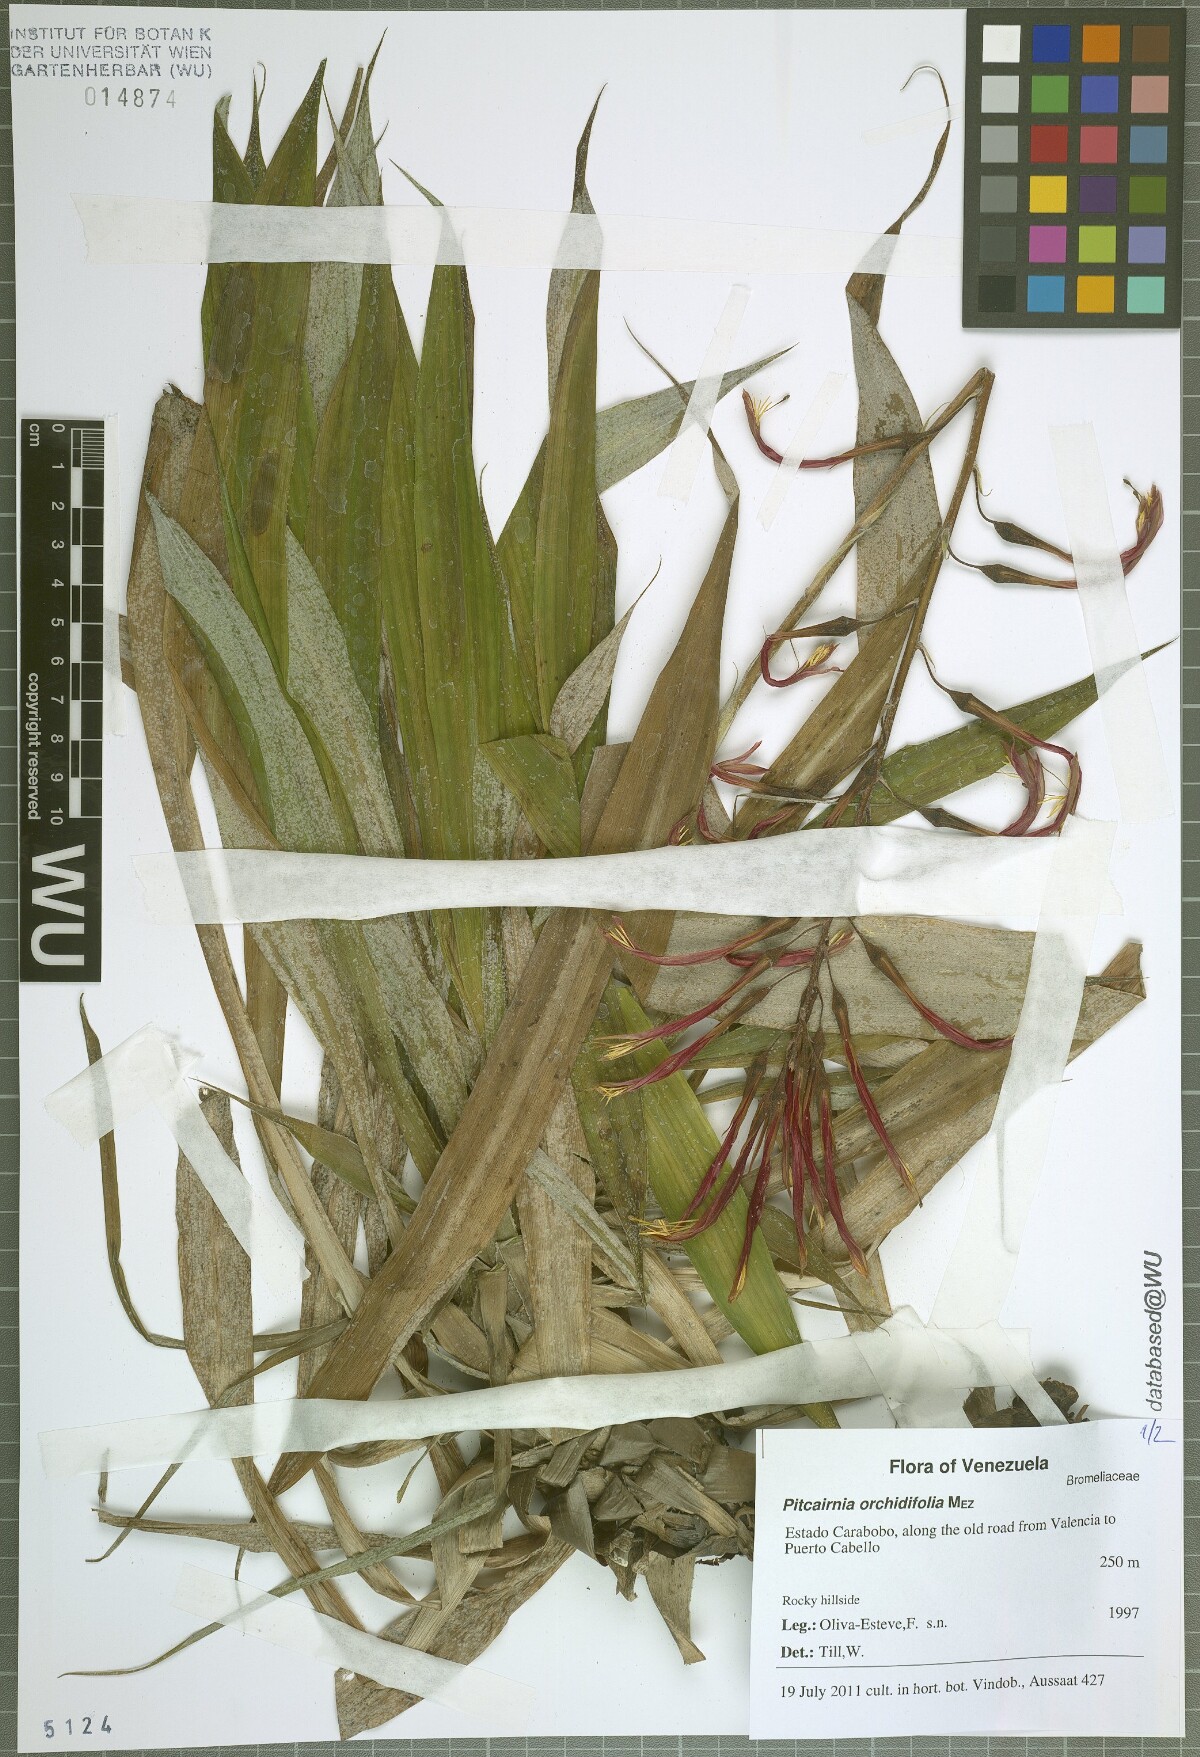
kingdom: Plantae
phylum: Tracheophyta
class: Liliopsida
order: Poales
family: Bromeliaceae
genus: Pitcairnia
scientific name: Pitcairnia orchidifolia
